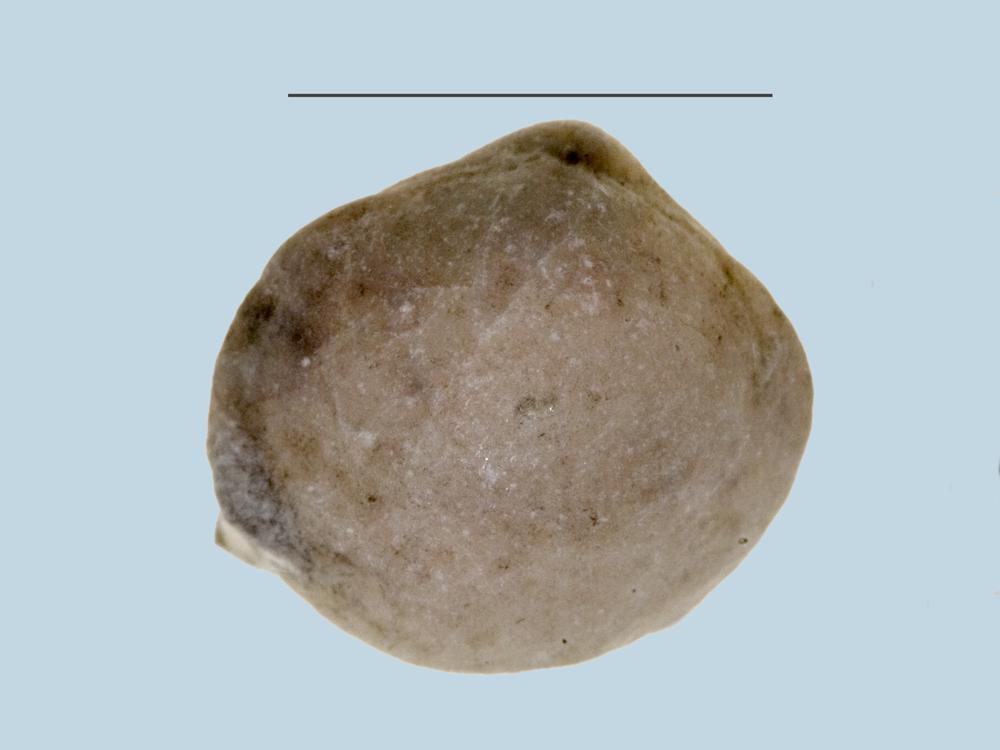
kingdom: Animalia
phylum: Brachiopoda
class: Lingulata
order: Lingulida
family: Lingulidae
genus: Lingula
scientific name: Lingula
